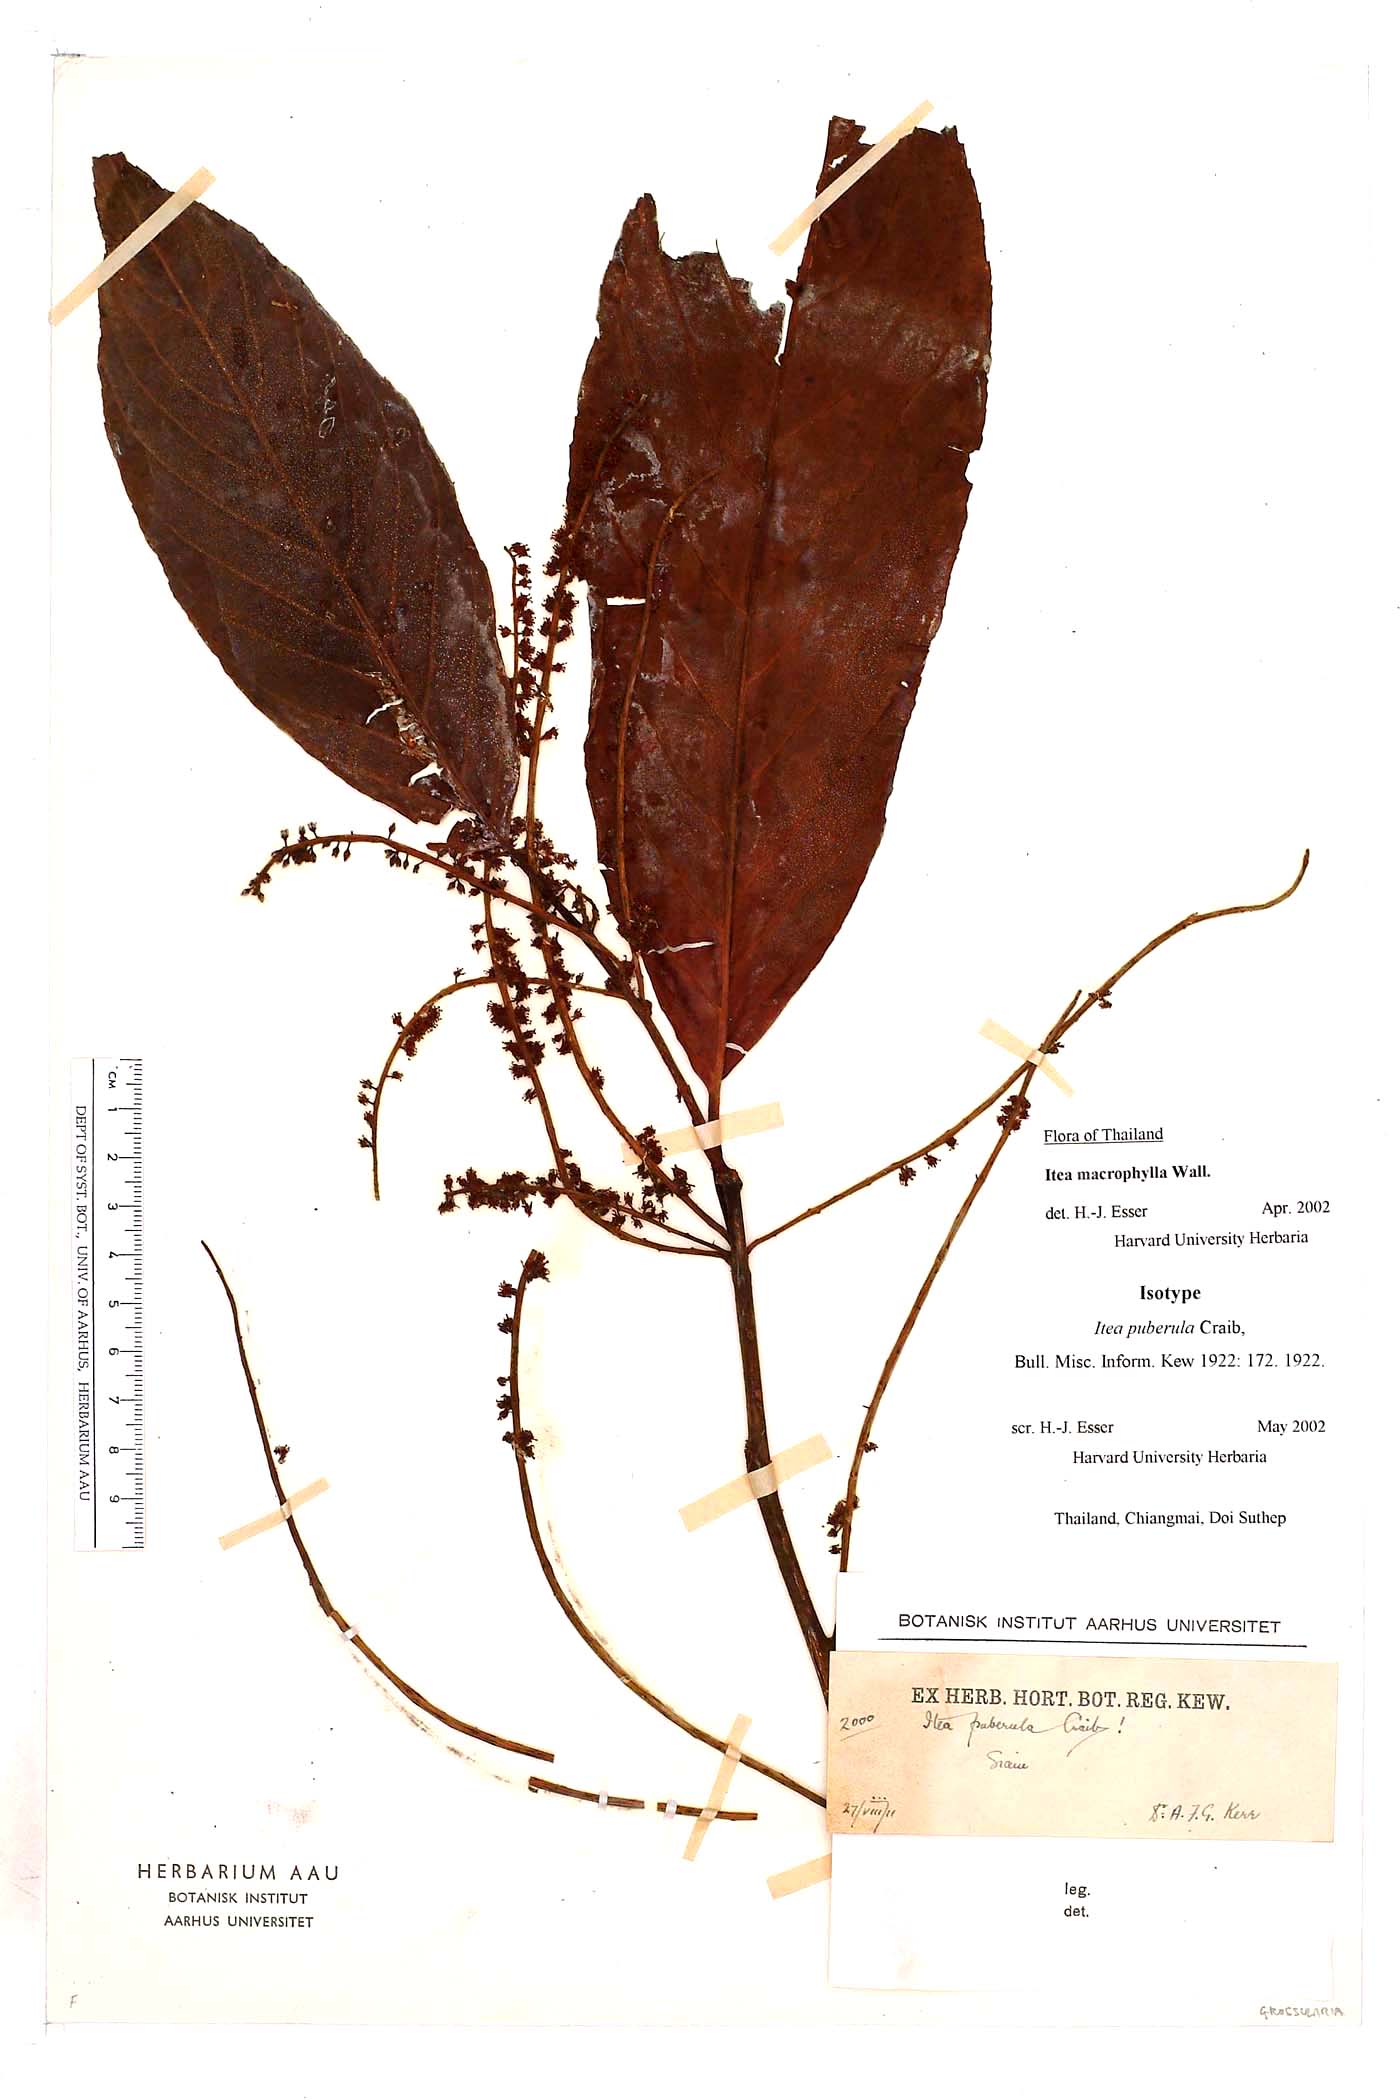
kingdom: Plantae
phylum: Tracheophyta
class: Magnoliopsida
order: Saxifragales
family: Iteaceae
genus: Itea
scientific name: Itea macrophylla
